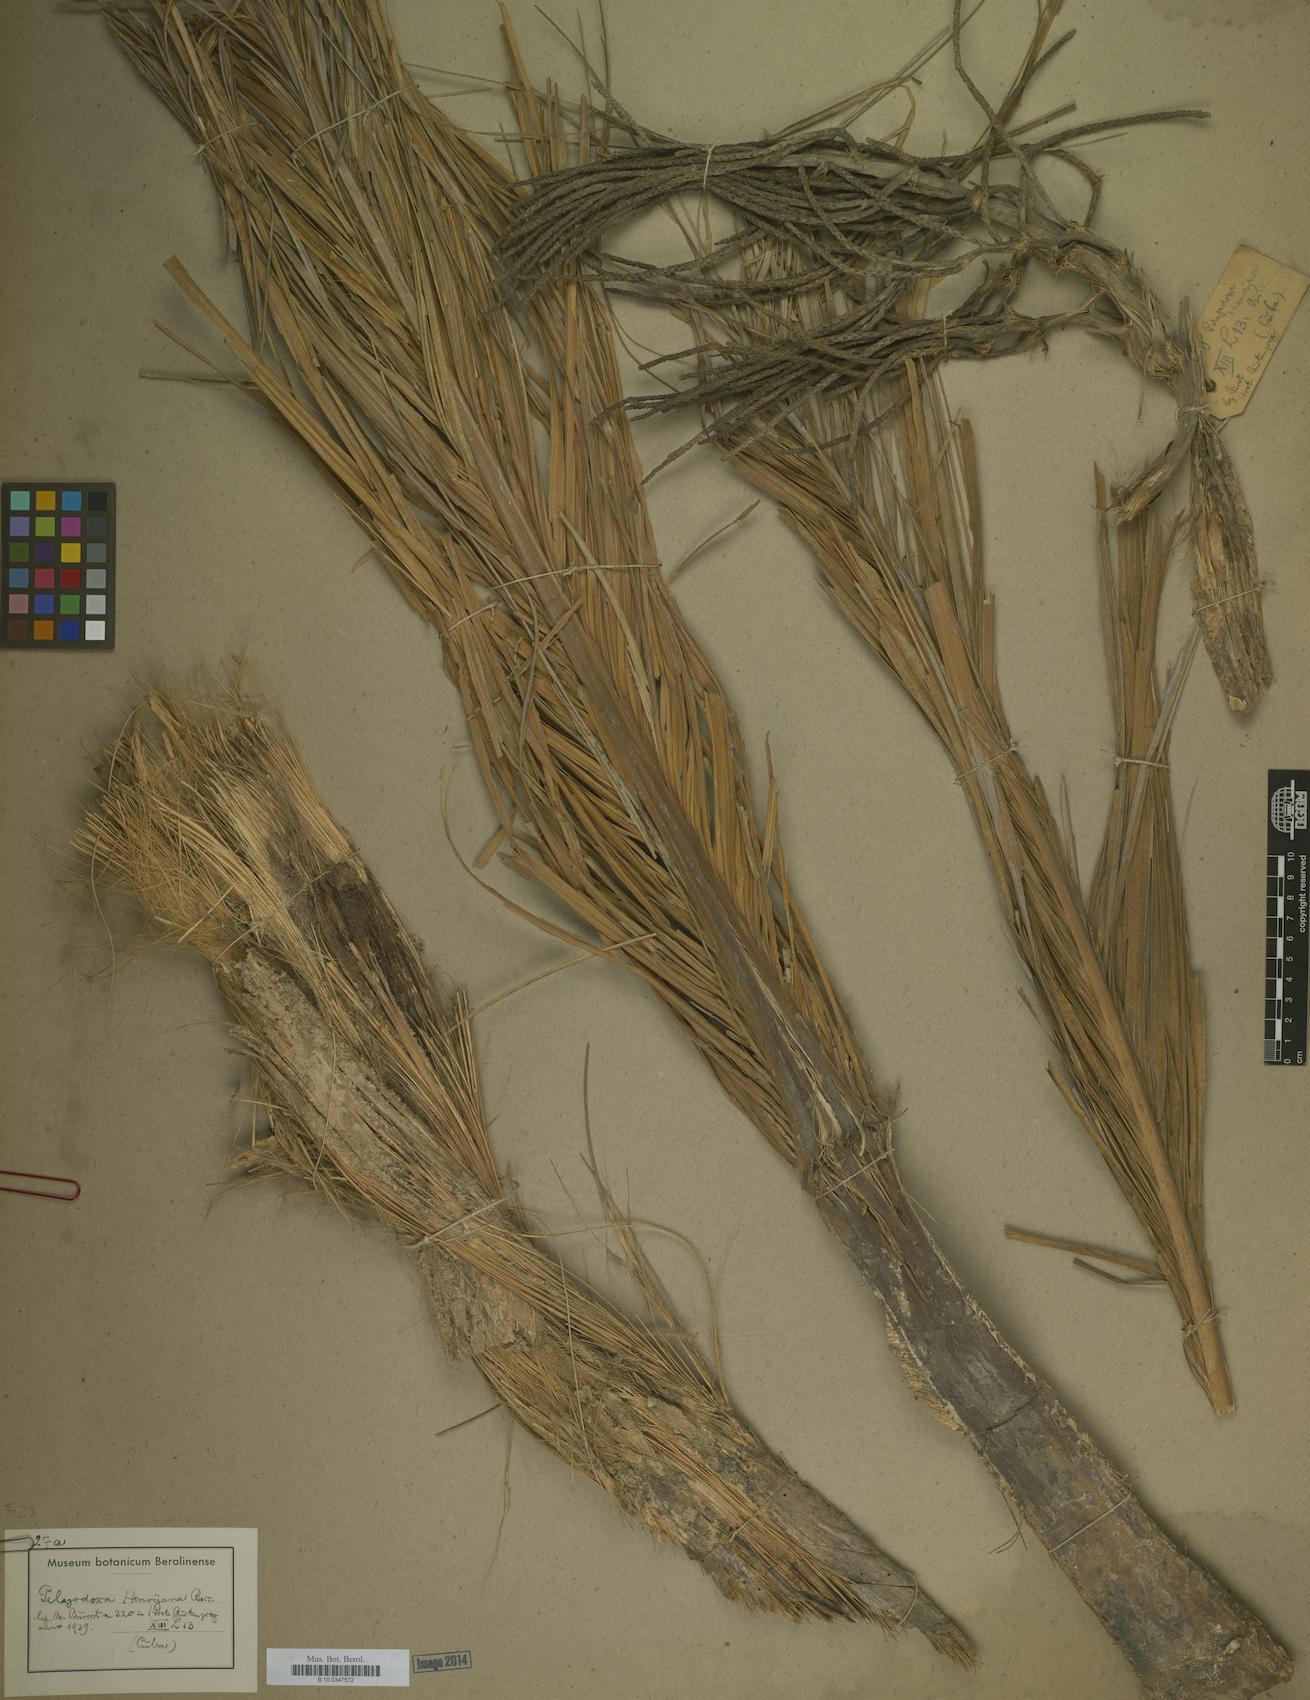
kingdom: Plantae
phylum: Tracheophyta
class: Liliopsida
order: Arecales
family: Arecaceae
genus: Pelagodoxa
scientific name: Pelagodoxa henryana
